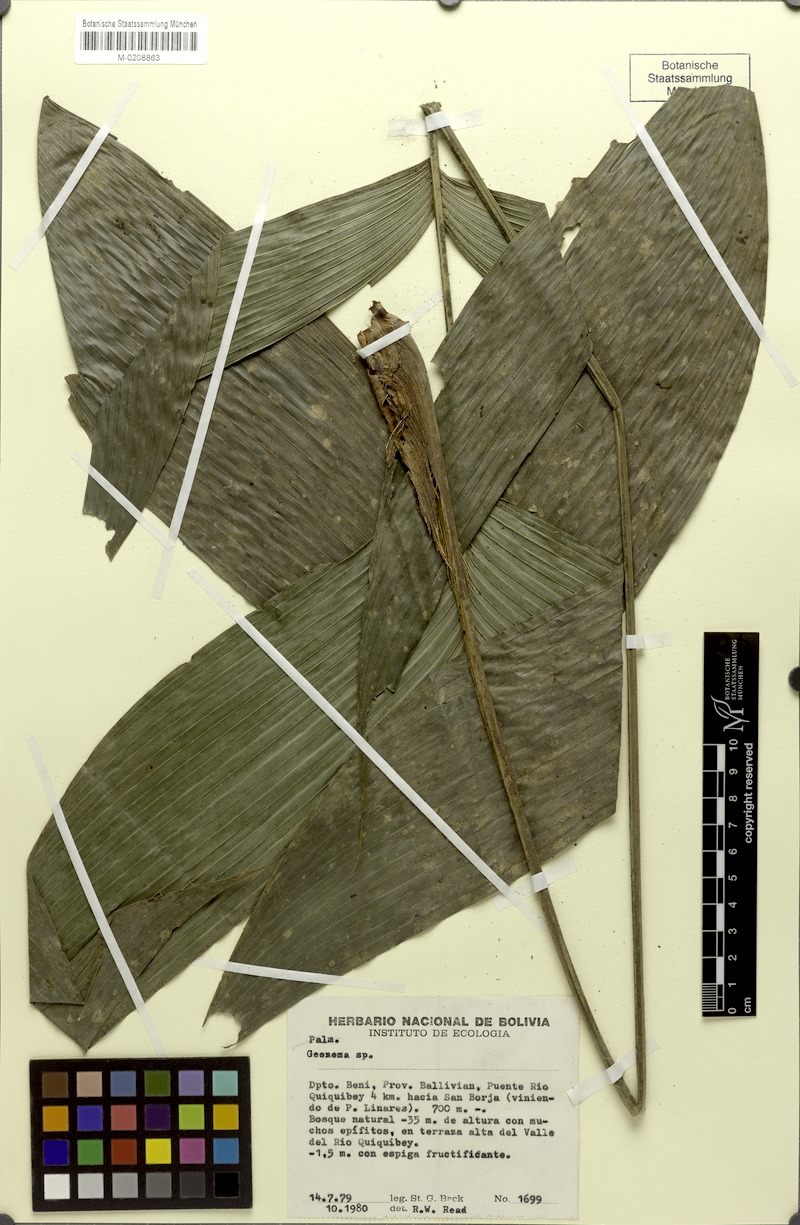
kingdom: Plantae
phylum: Tracheophyta
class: Liliopsida
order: Arecales
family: Arecaceae
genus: Geonoma
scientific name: Geonoma
